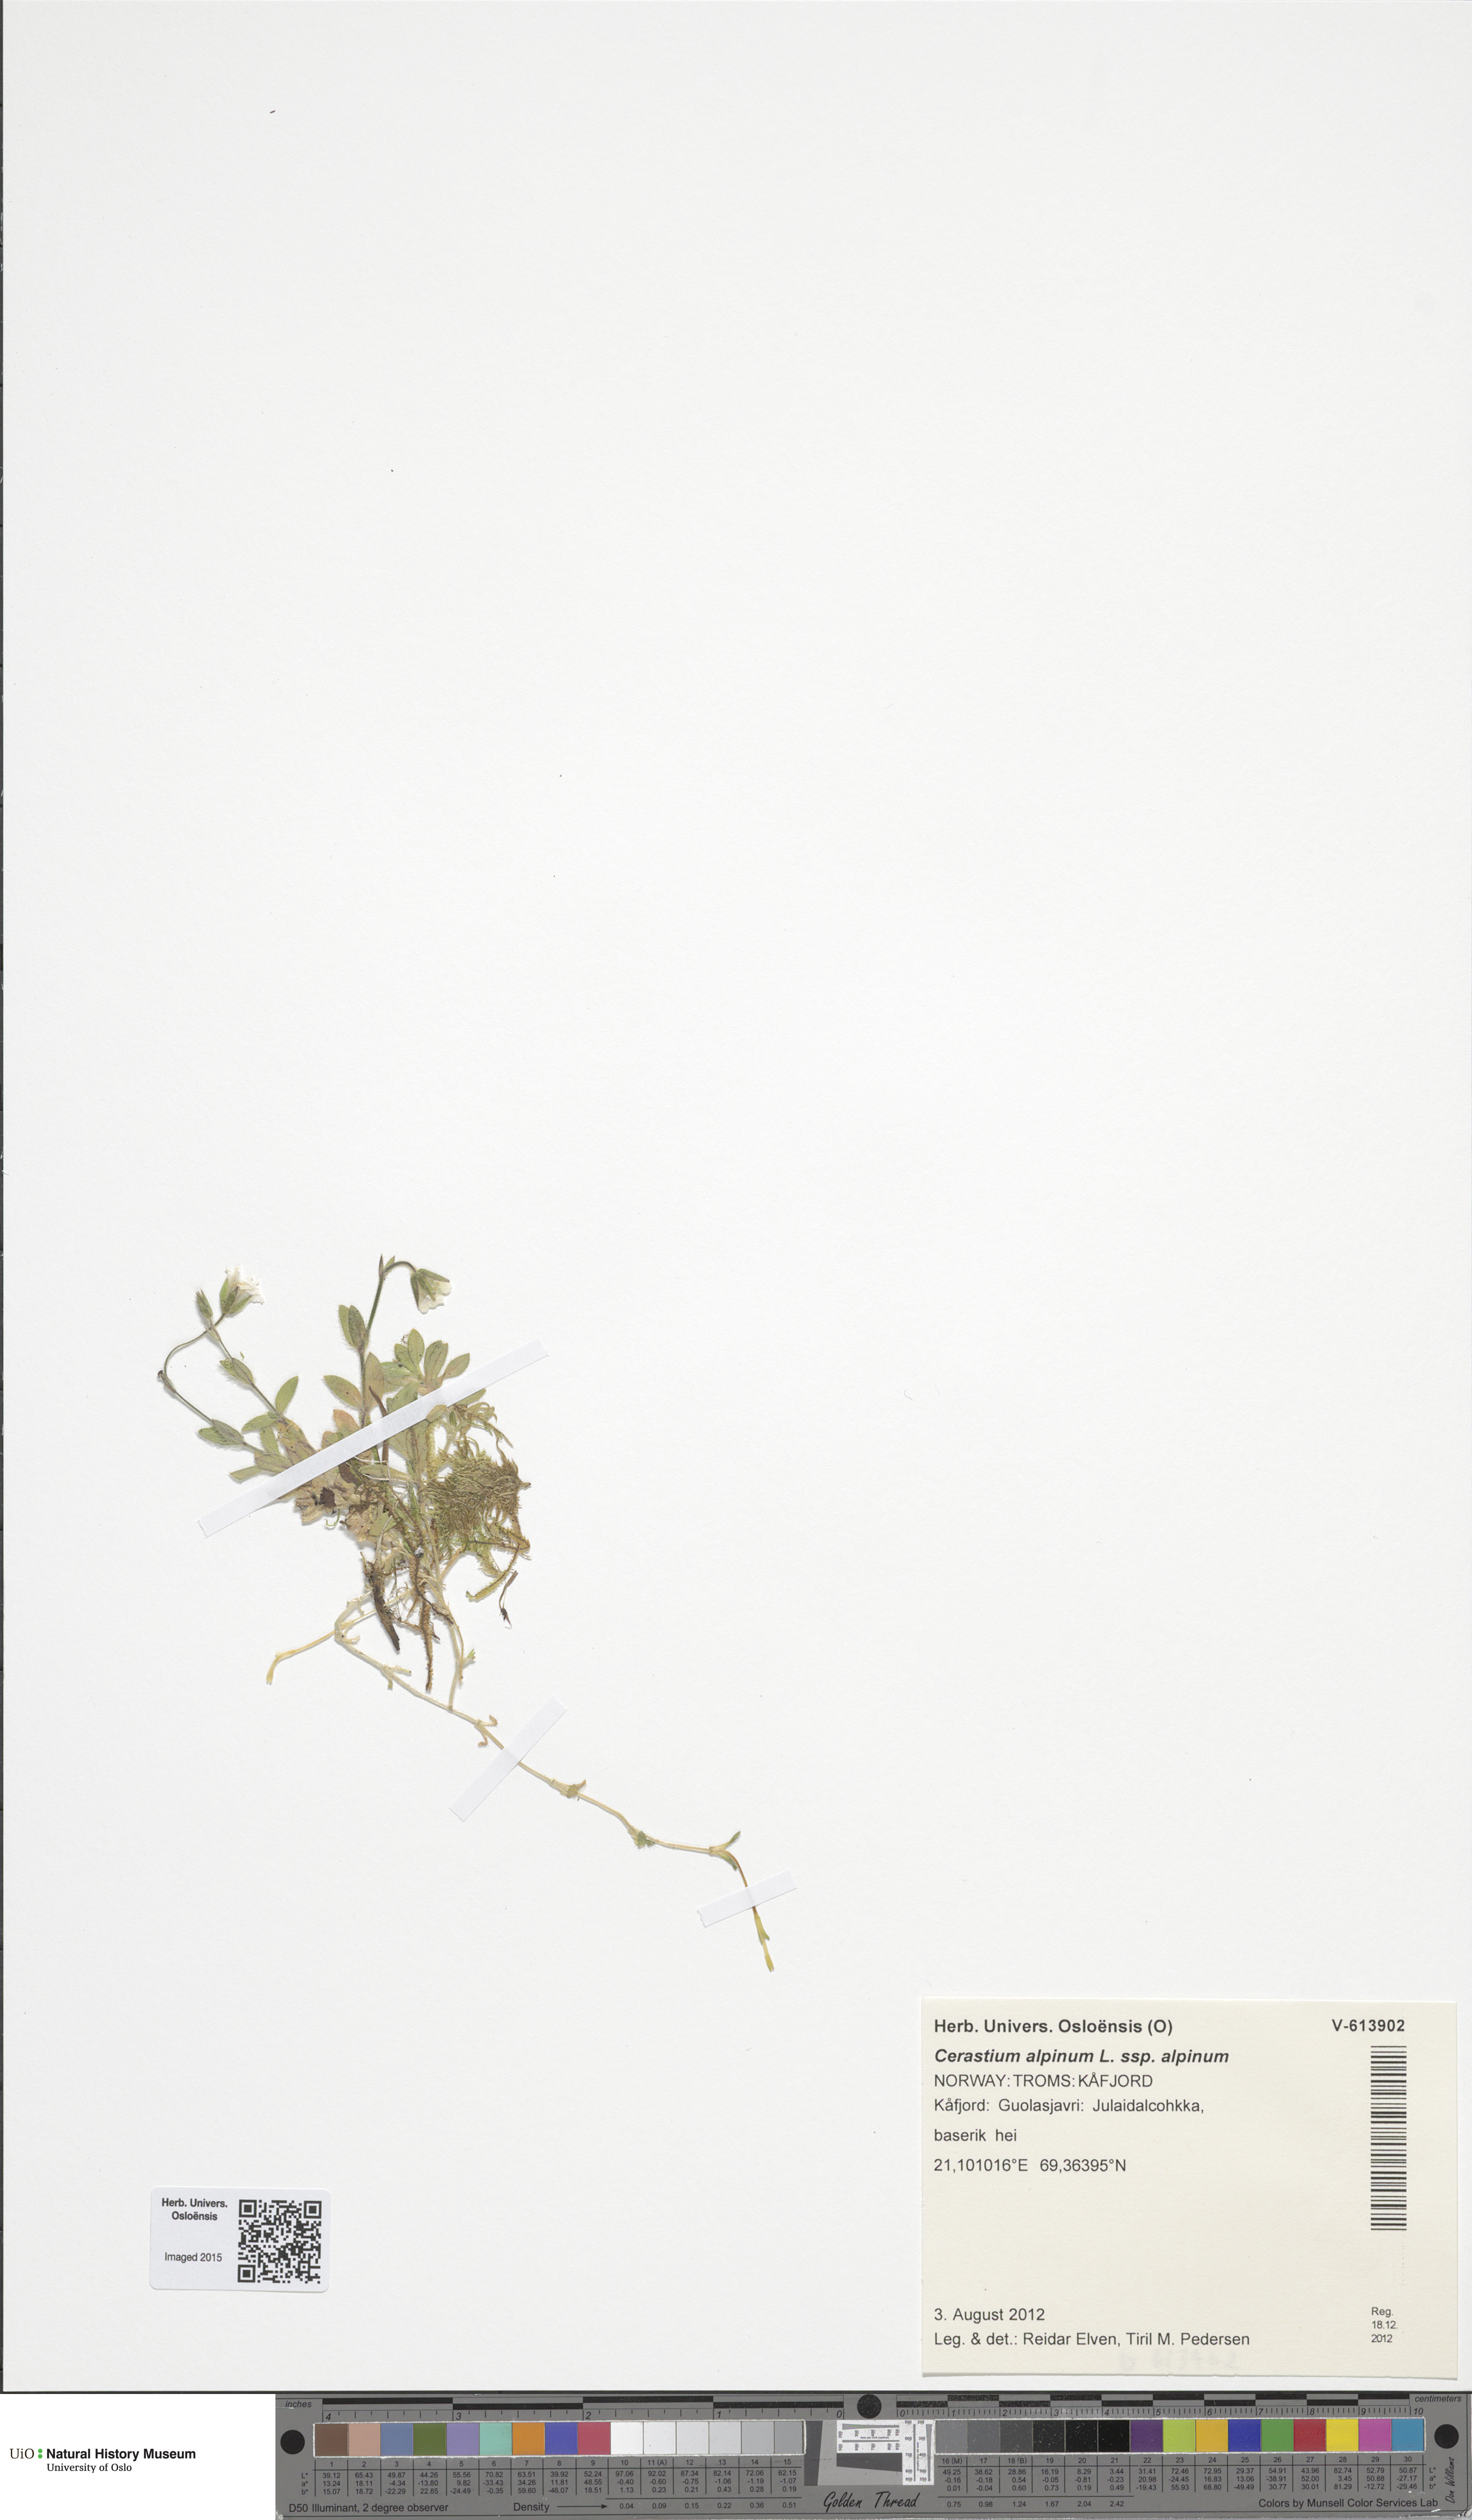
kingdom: Plantae
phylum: Tracheophyta
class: Magnoliopsida
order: Caryophyllales
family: Caryophyllaceae
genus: Cerastium
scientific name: Cerastium alpinum
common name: Alpine mouse-ear
